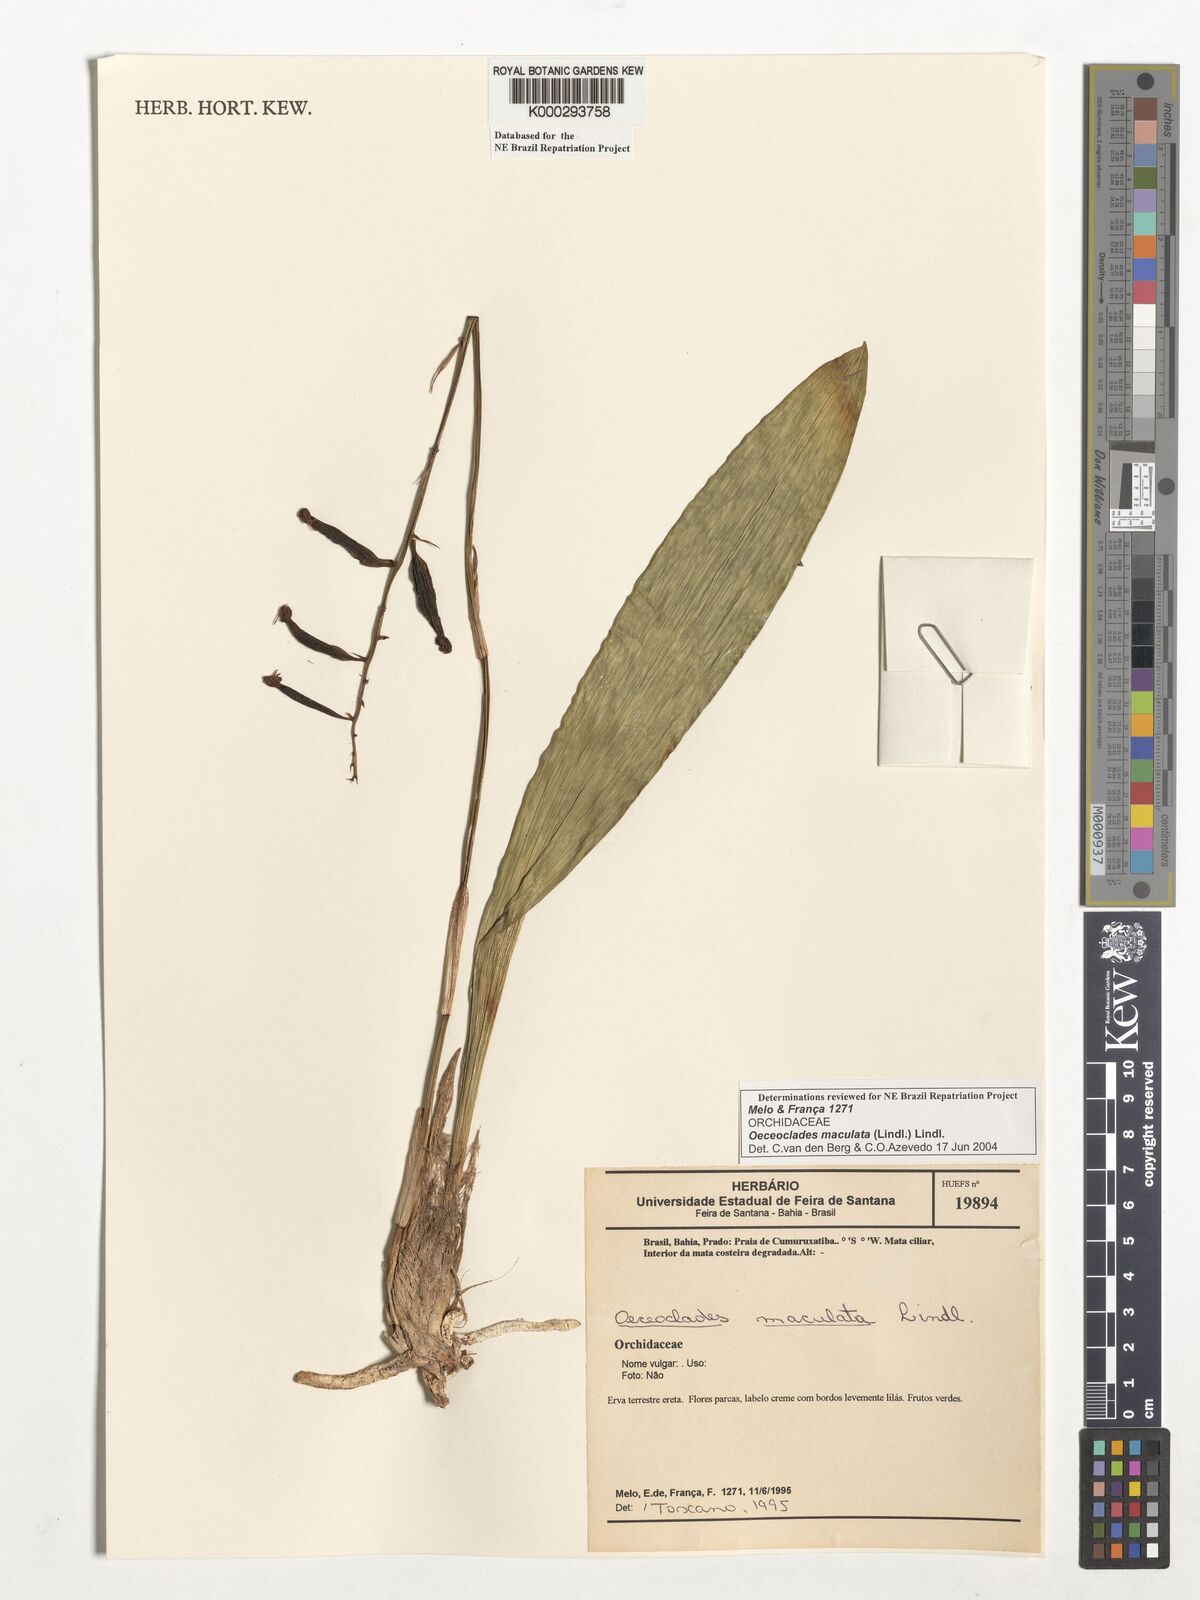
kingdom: Plantae
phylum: Tracheophyta
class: Liliopsida
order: Asparagales
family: Orchidaceae
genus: Eulophia
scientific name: Eulophia maculata
